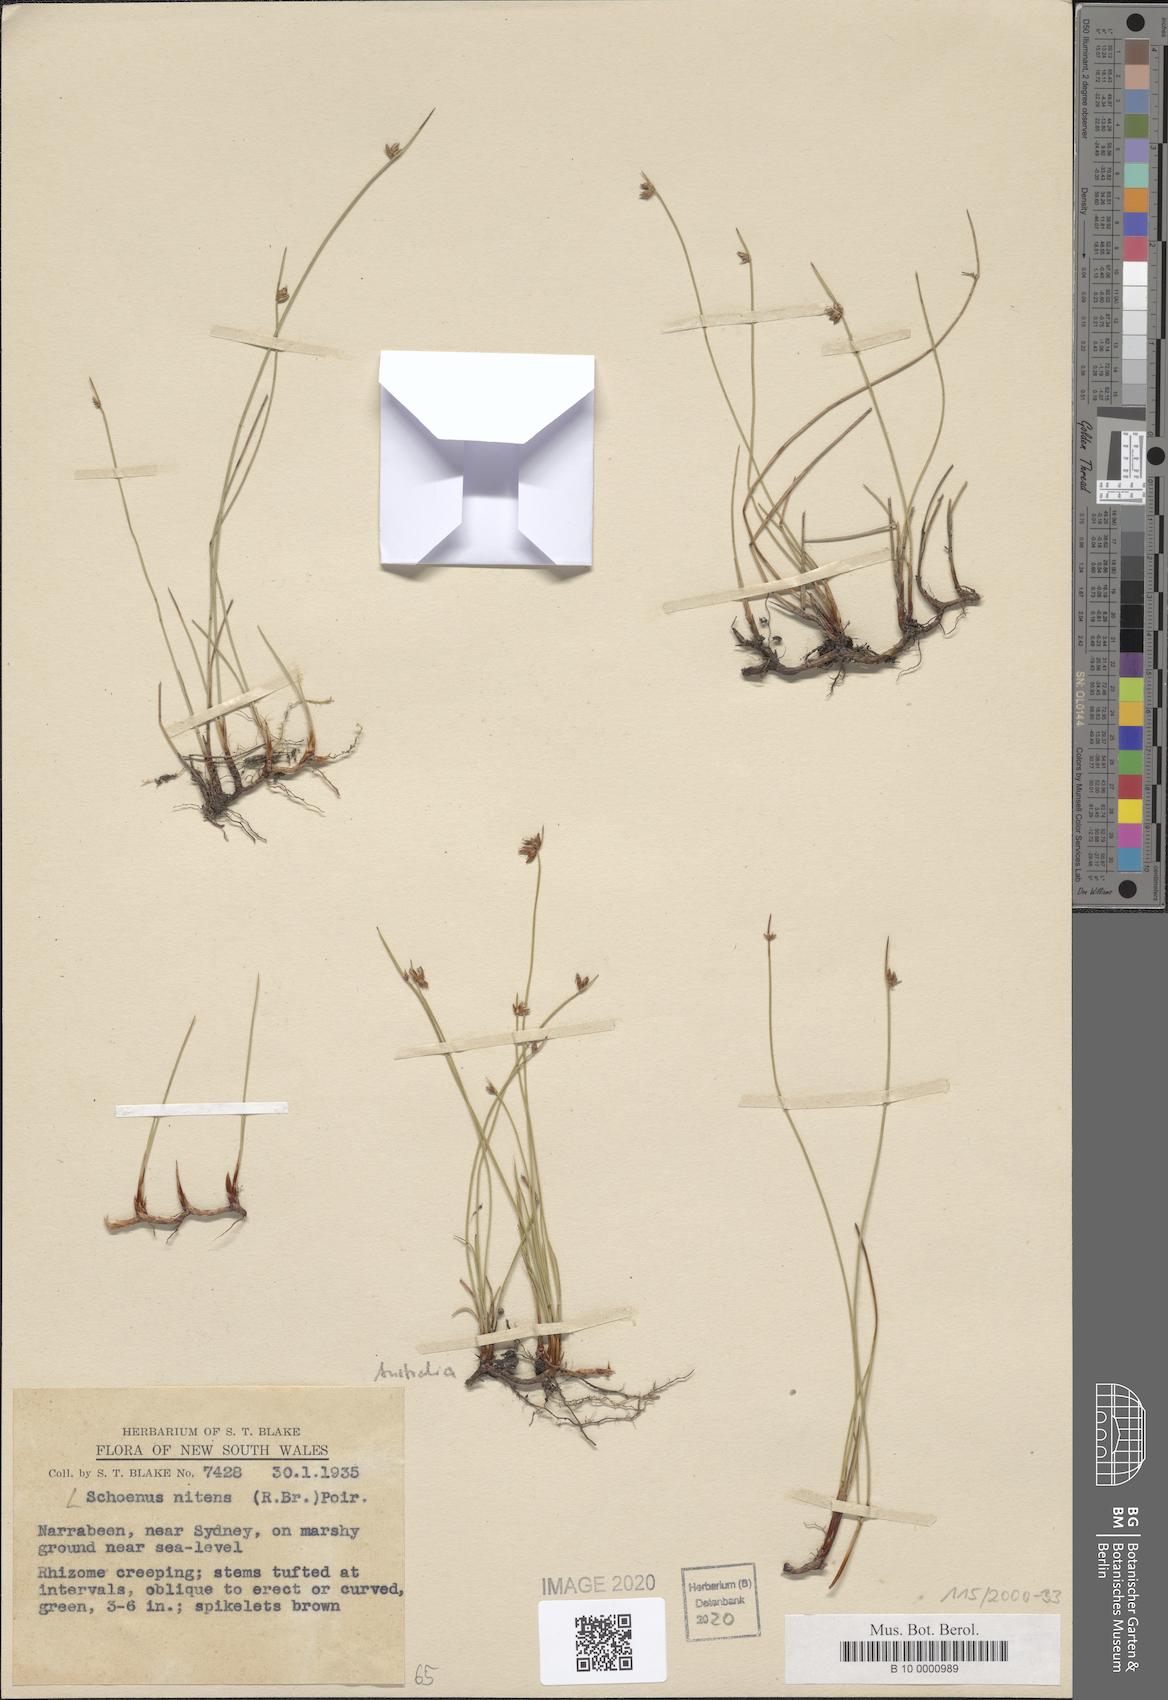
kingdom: Plantae
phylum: Tracheophyta
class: Liliopsida
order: Poales
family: Cyperaceae
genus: Schoenus
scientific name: Schoenus nitens
